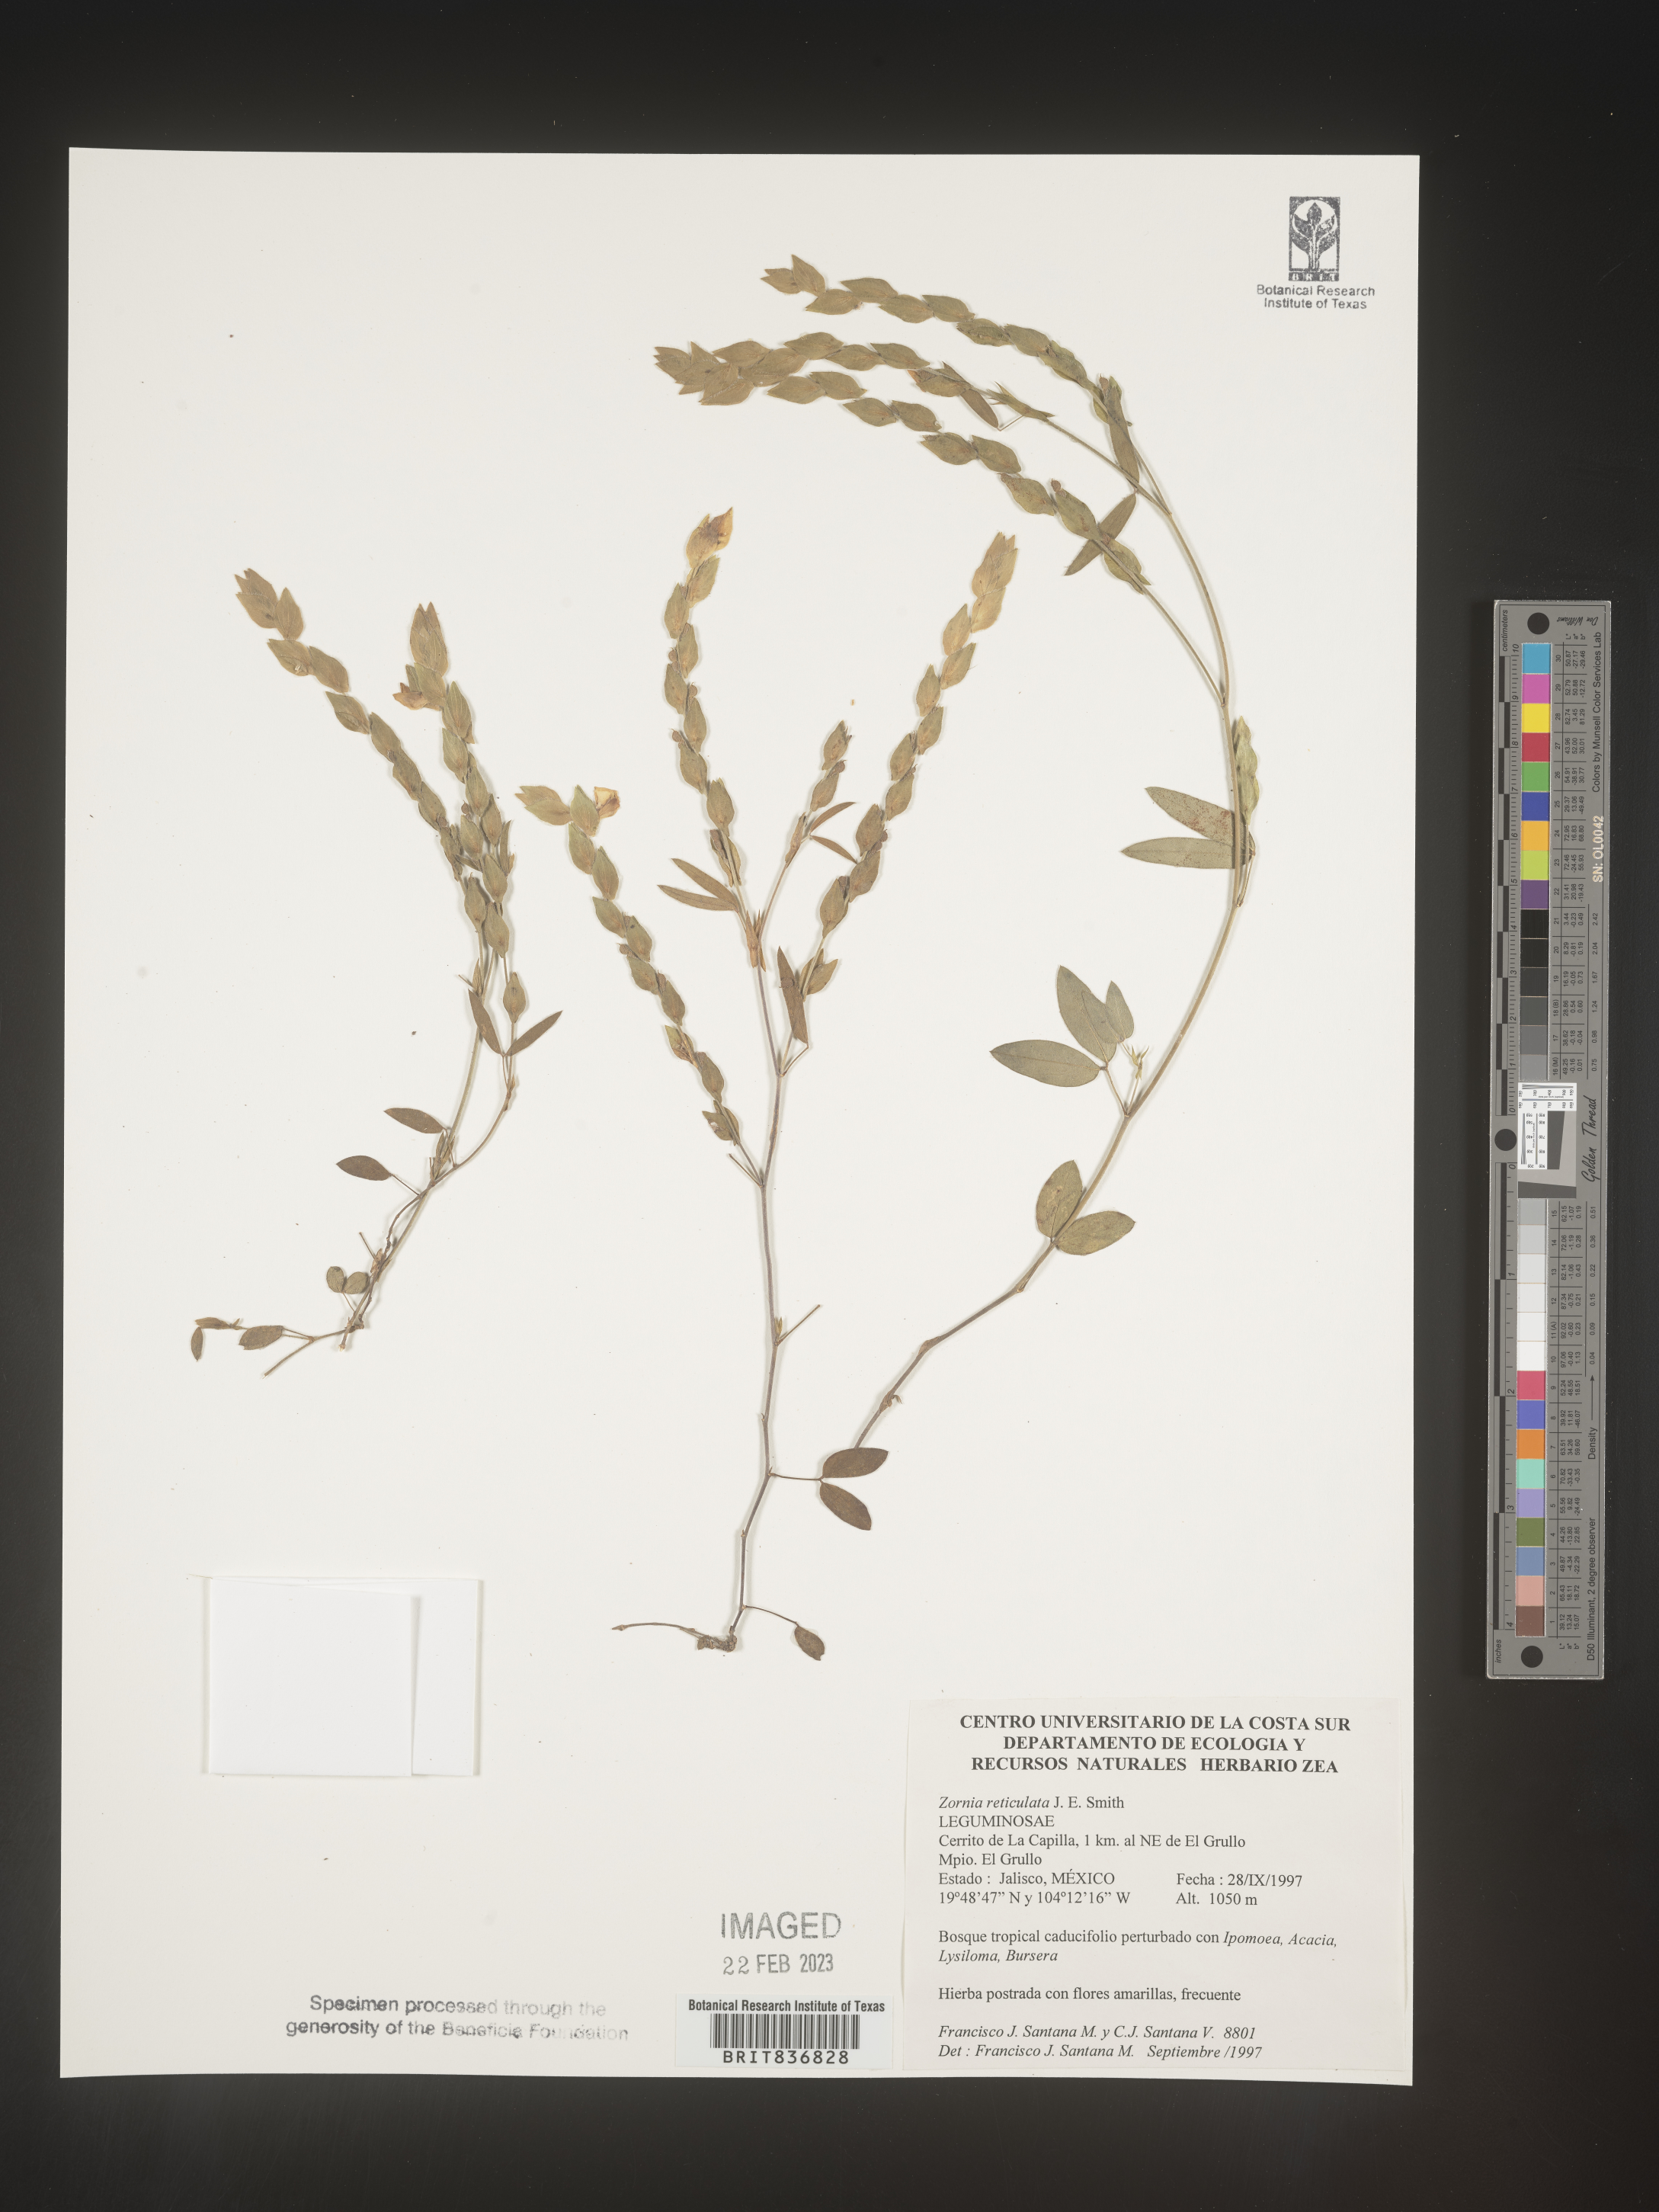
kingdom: Plantae
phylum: Tracheophyta
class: Magnoliopsida
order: Fabales
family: Fabaceae
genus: Zornia
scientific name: Zornia
